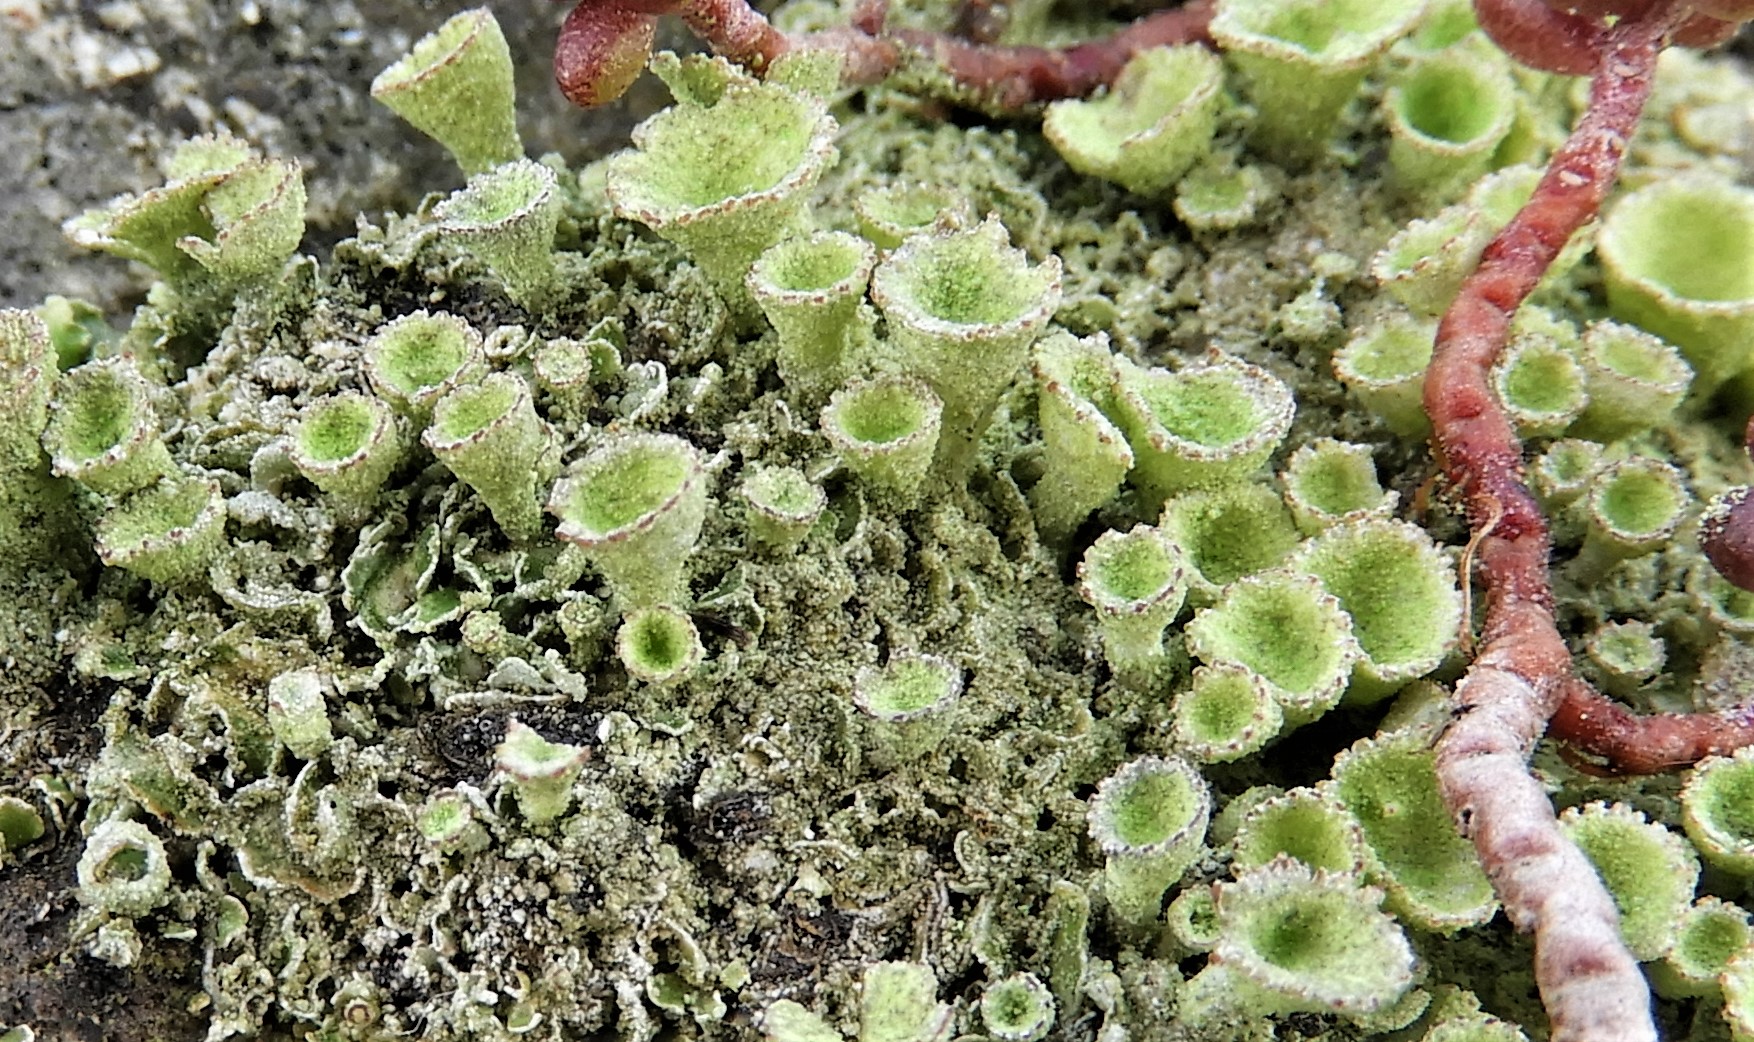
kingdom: Fungi
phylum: Ascomycota
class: Lecanoromycetes
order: Lecanorales
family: Cladoniaceae
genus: Cladonia
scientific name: Cladonia
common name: brungrøn bægerlav
